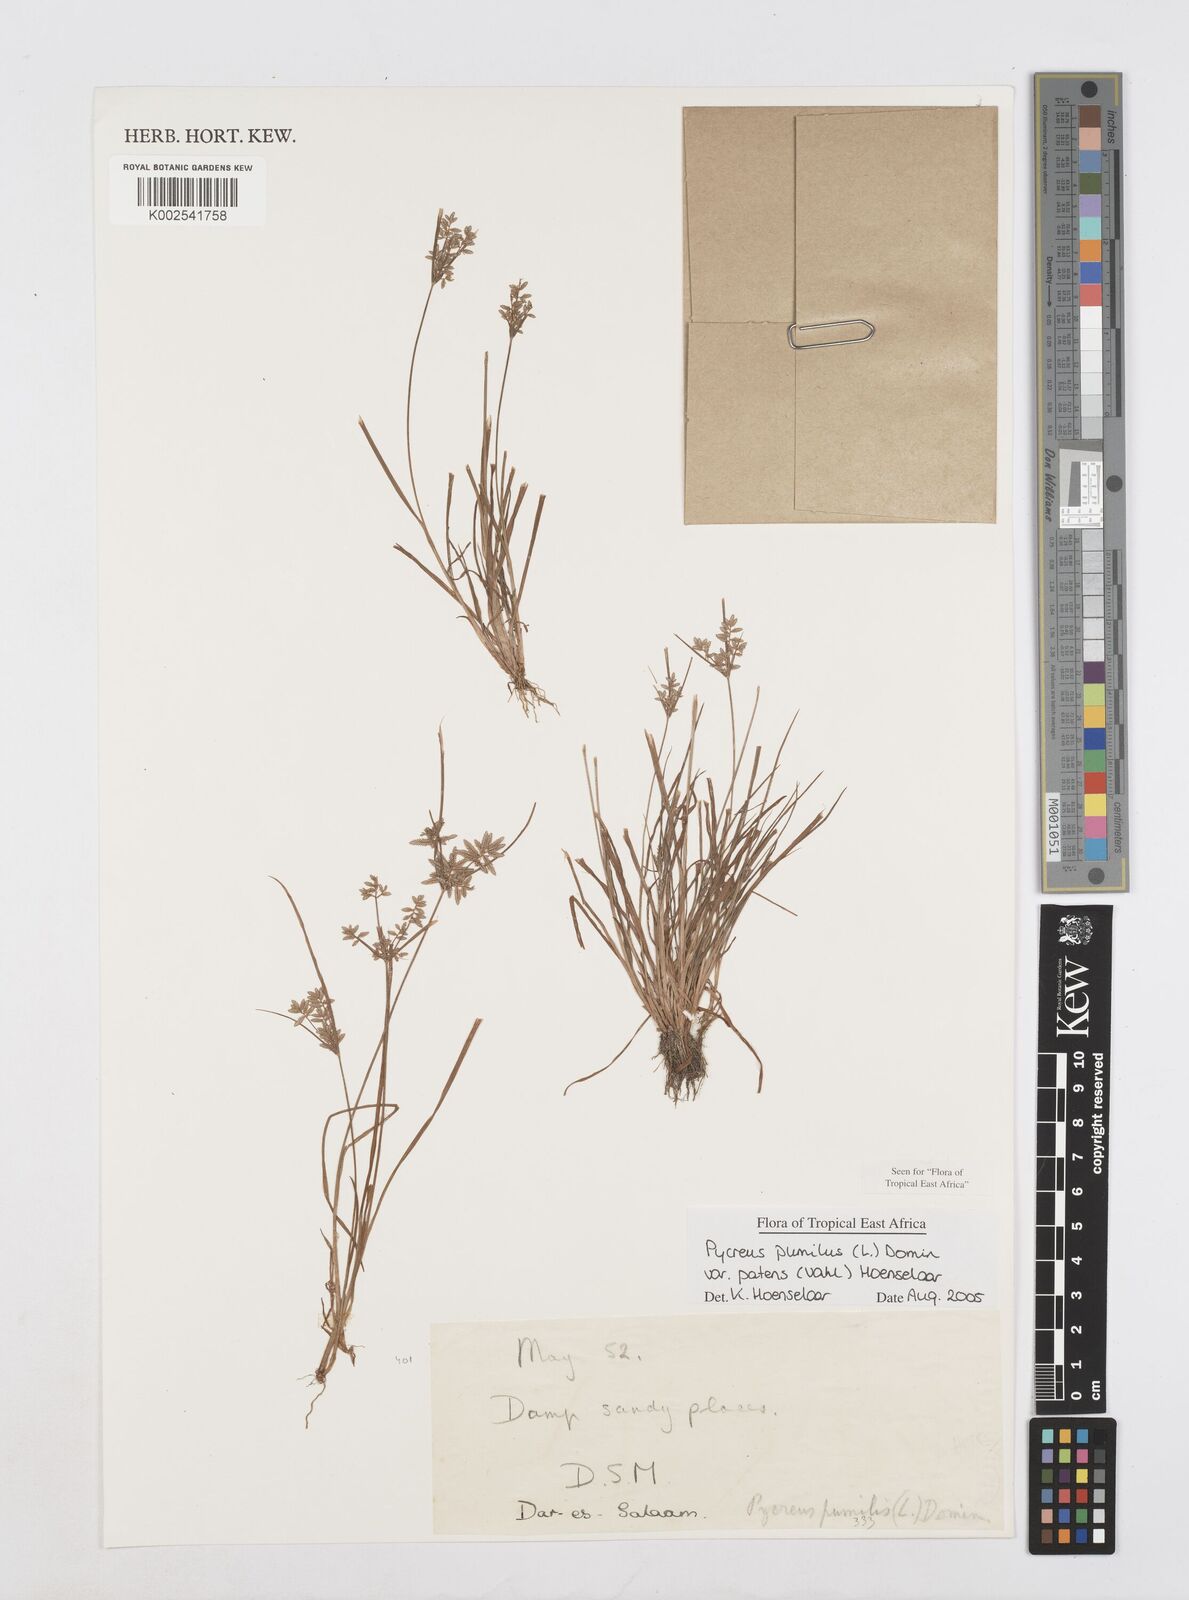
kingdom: Plantae
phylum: Tracheophyta
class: Liliopsida
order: Poales
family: Cyperaceae
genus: Cyperus
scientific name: Cyperus pumilus
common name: Low flatsedge
